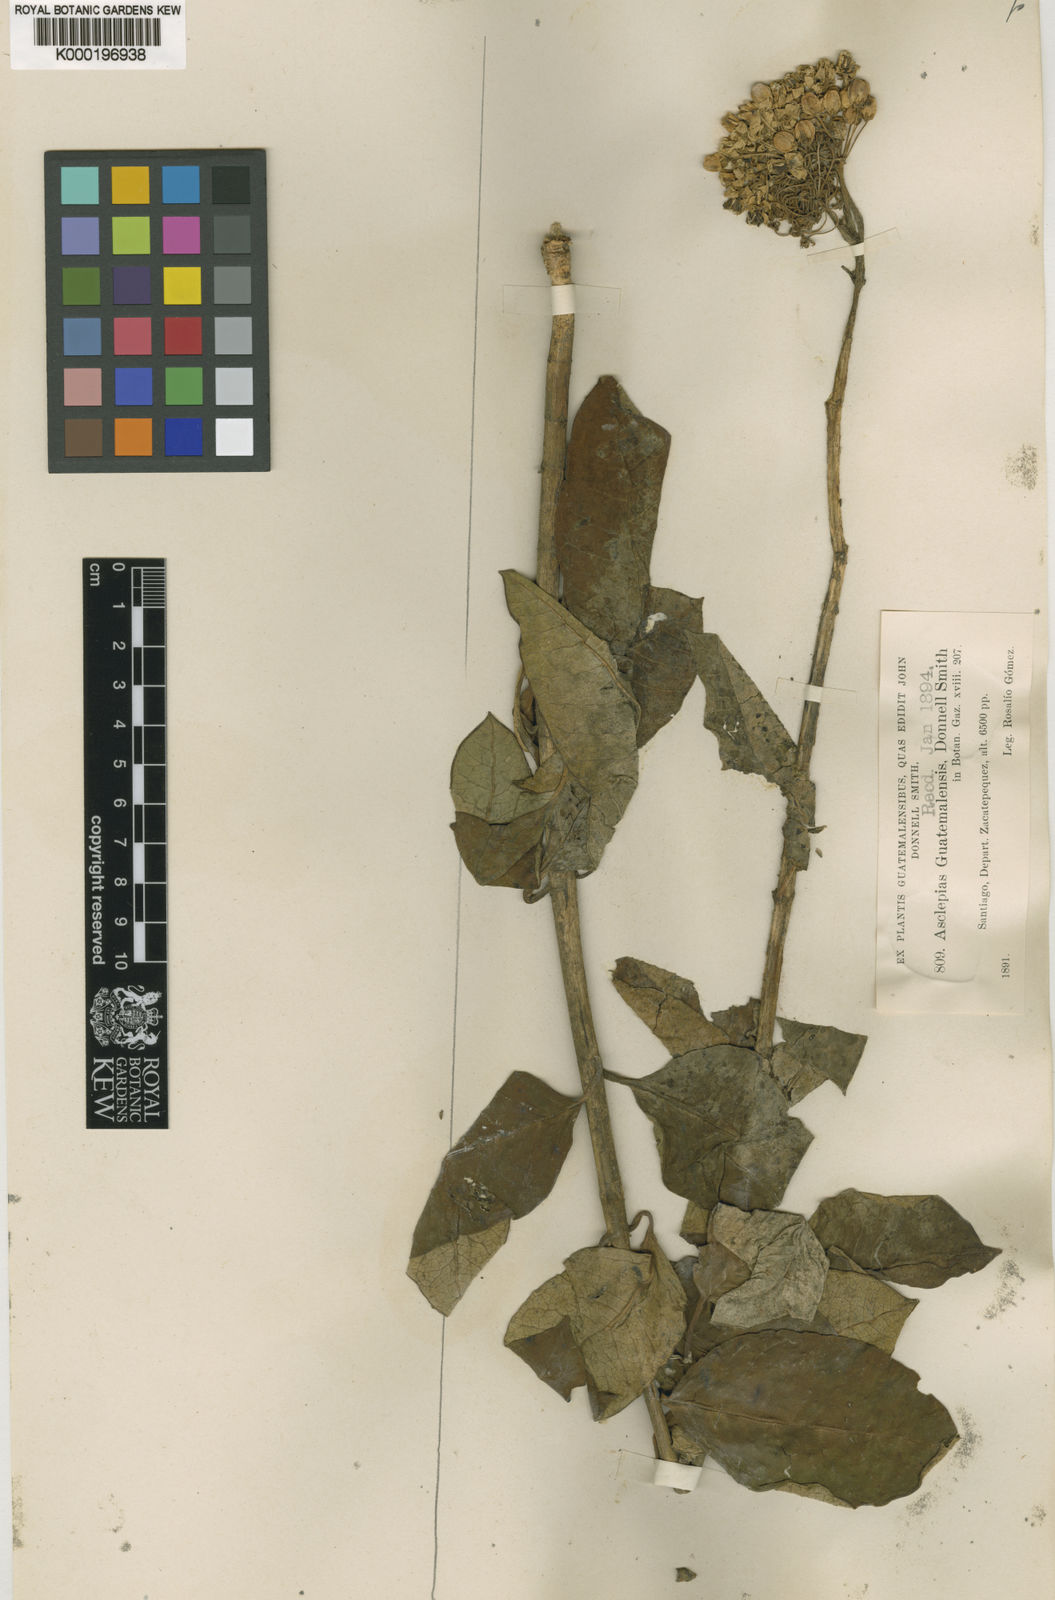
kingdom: Plantae
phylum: Tracheophyta
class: Magnoliopsida
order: Gentianales
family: Apocynaceae
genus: Asclepias
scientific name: Asclepias similis
